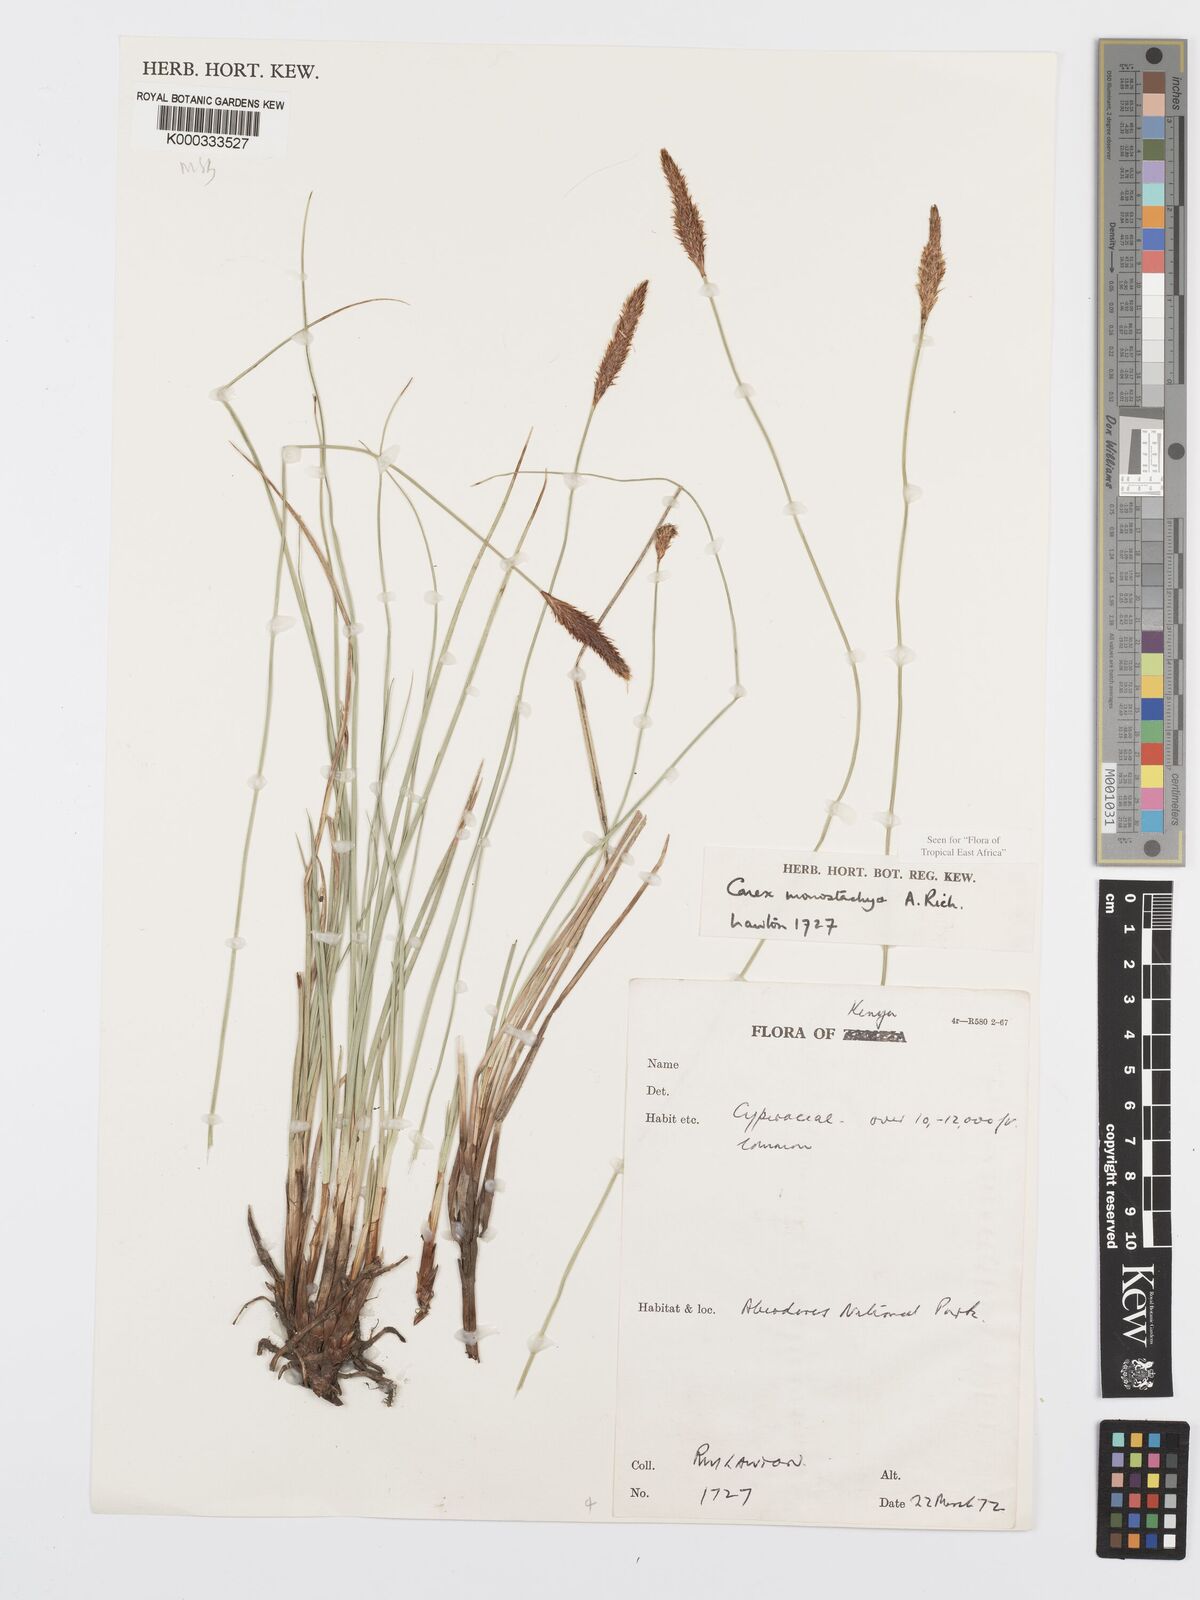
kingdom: Plantae
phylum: Tracheophyta
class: Liliopsida
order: Poales
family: Cyperaceae
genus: Carex
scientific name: Carex monostachya
